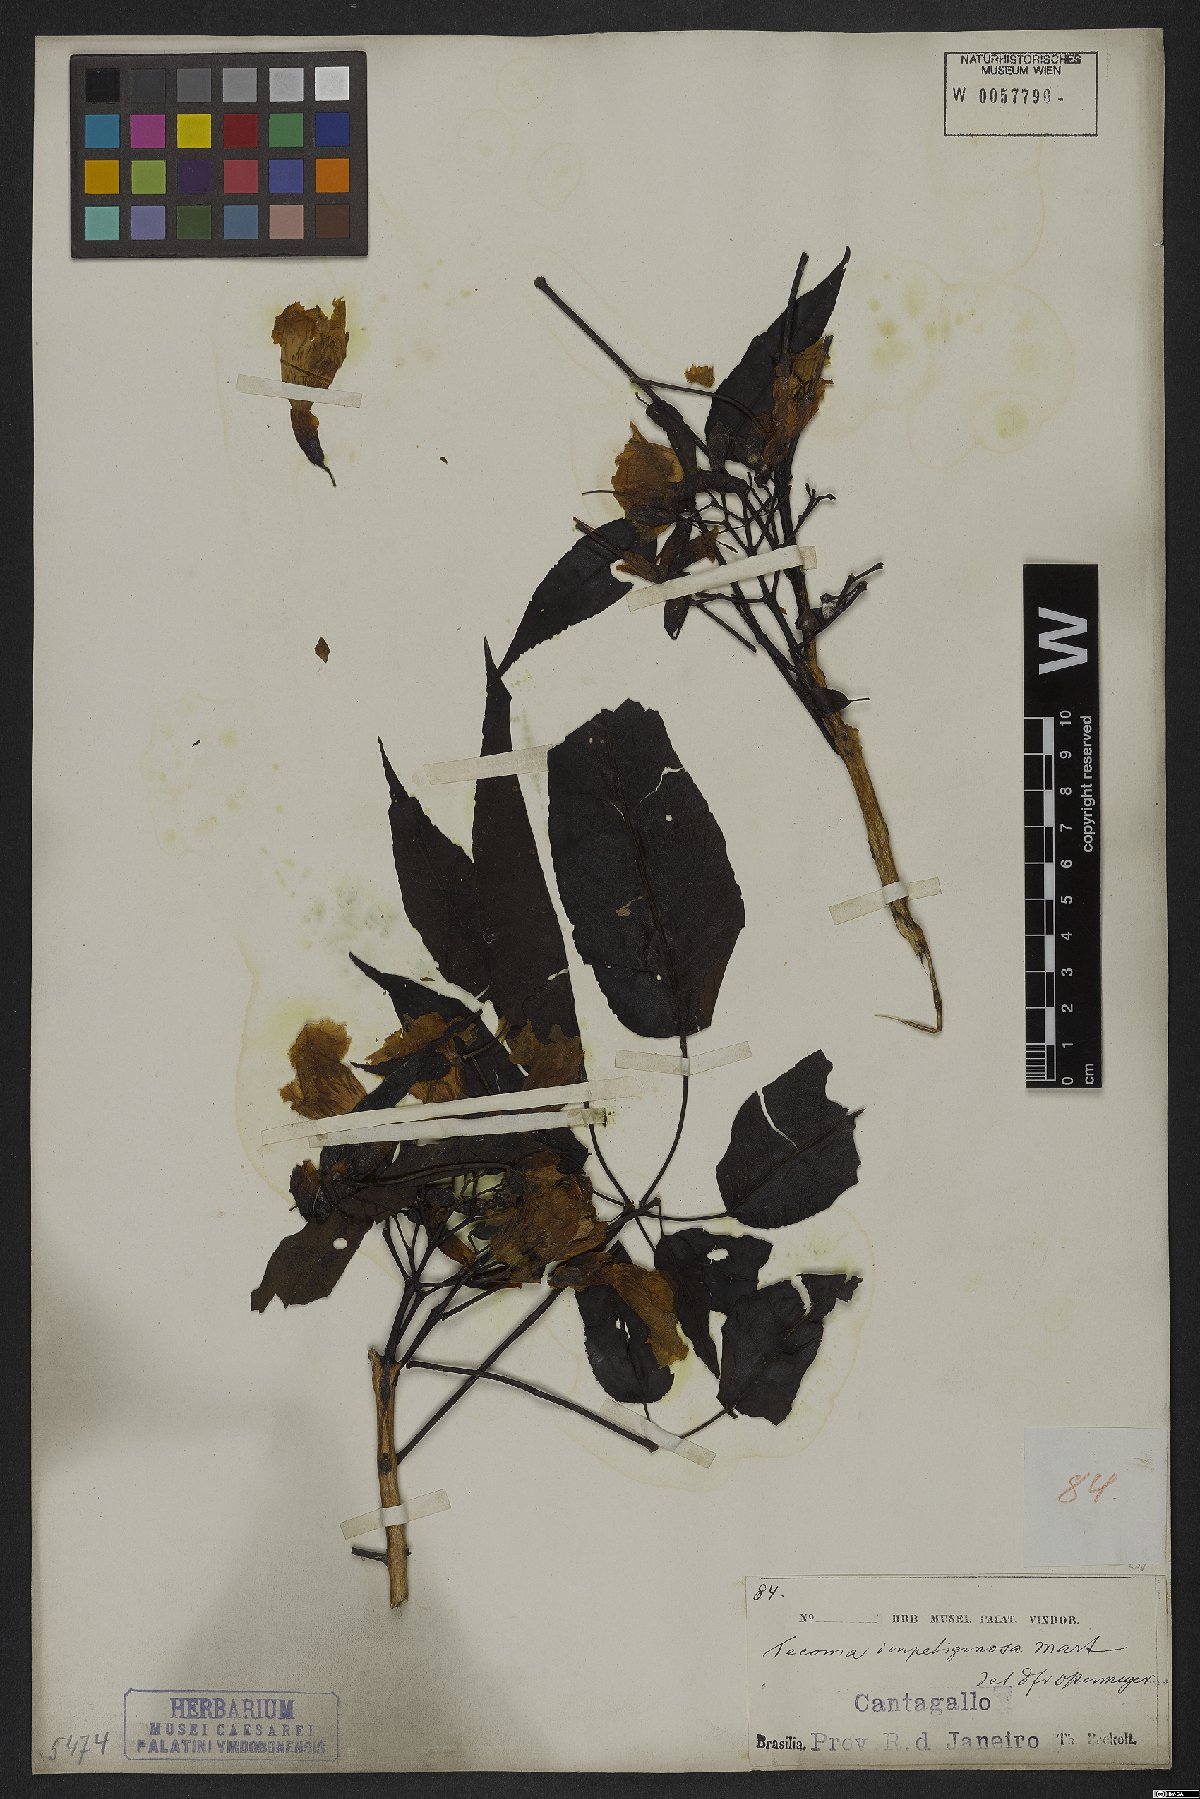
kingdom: Plantae
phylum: Tracheophyta
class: Magnoliopsida
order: Lamiales
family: Bignoniaceae
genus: Handroanthus
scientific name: Handroanthus impetiginosum
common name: Pink trumpet tree
